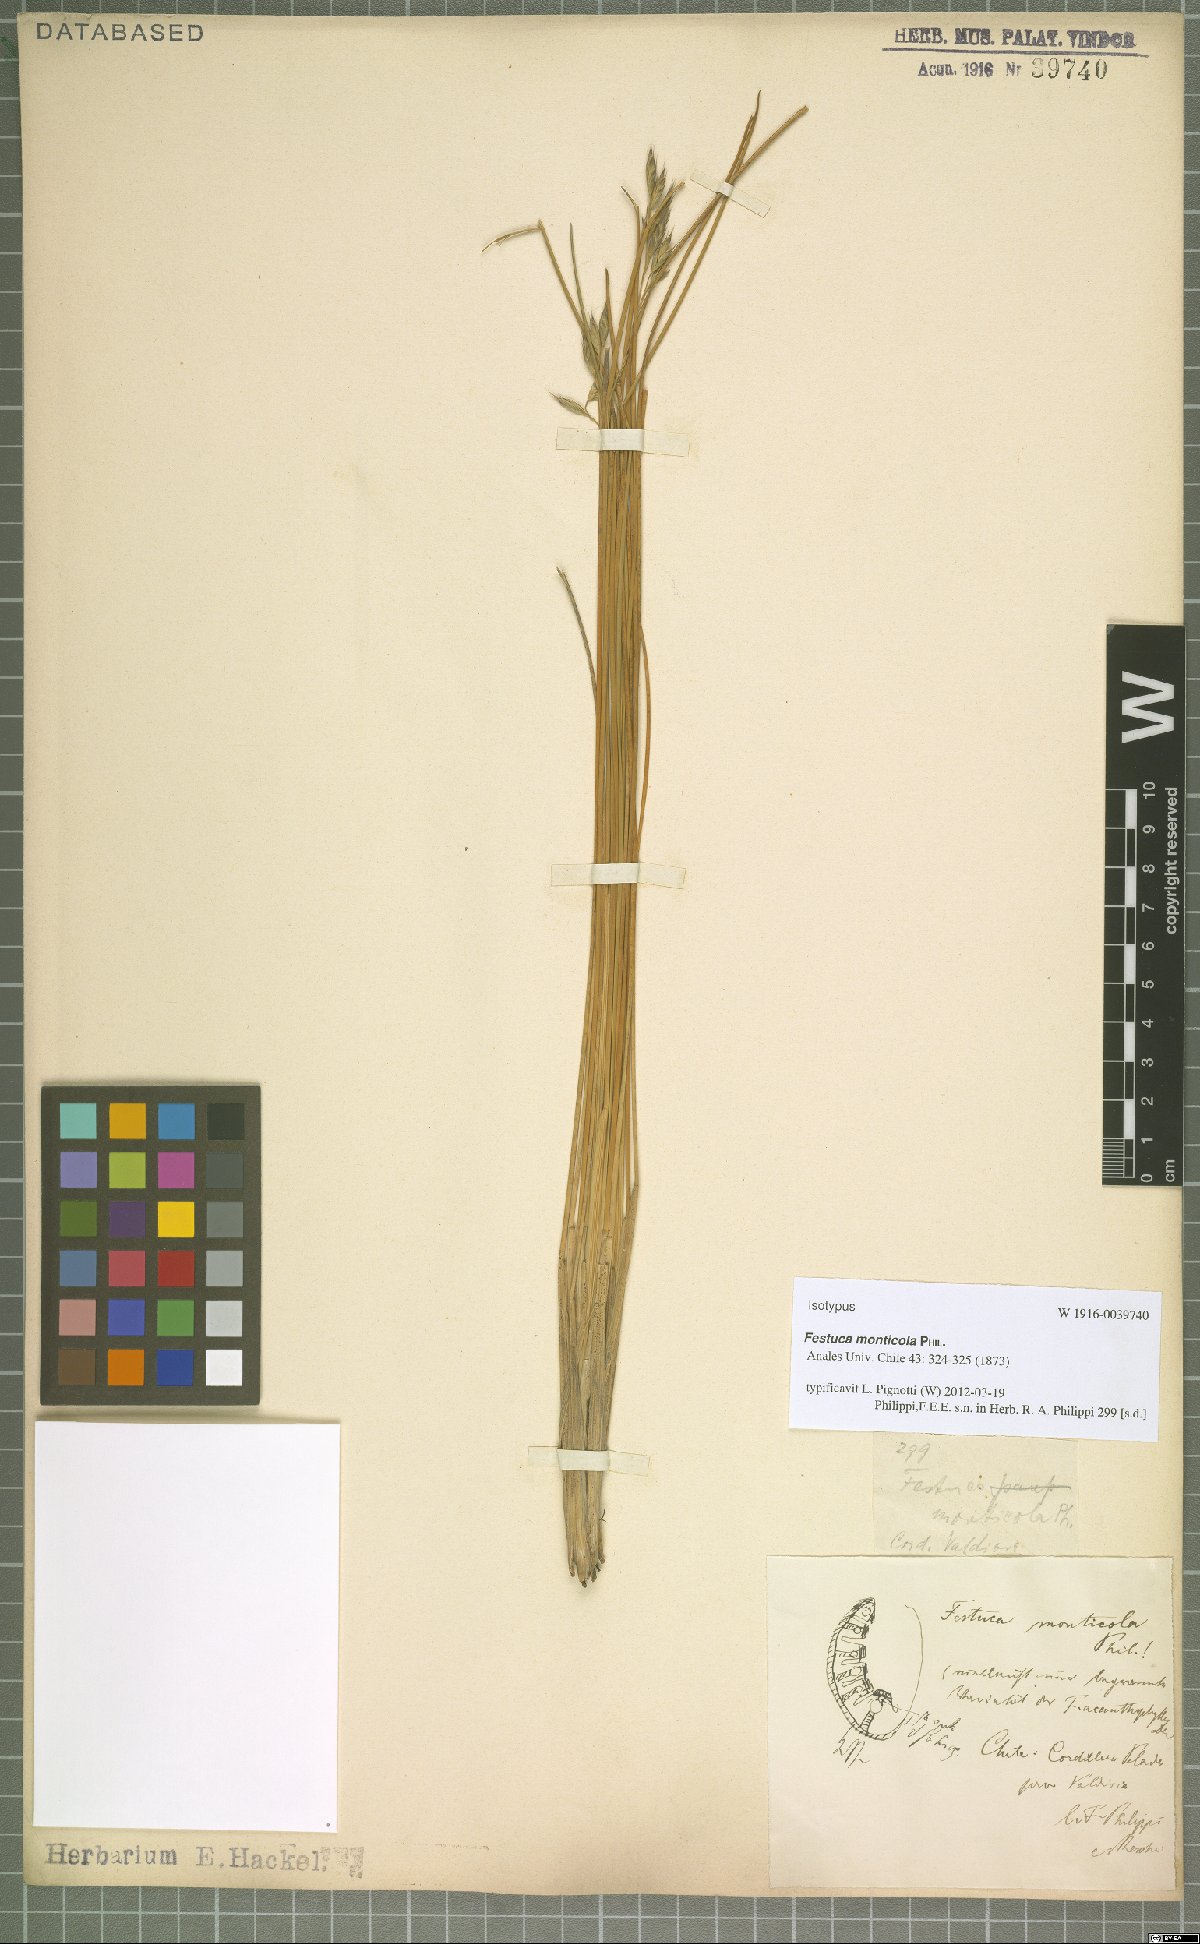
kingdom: Plantae
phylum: Tracheophyta
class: Liliopsida
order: Poales
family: Poaceae
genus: Festuca
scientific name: Festuca monticola
